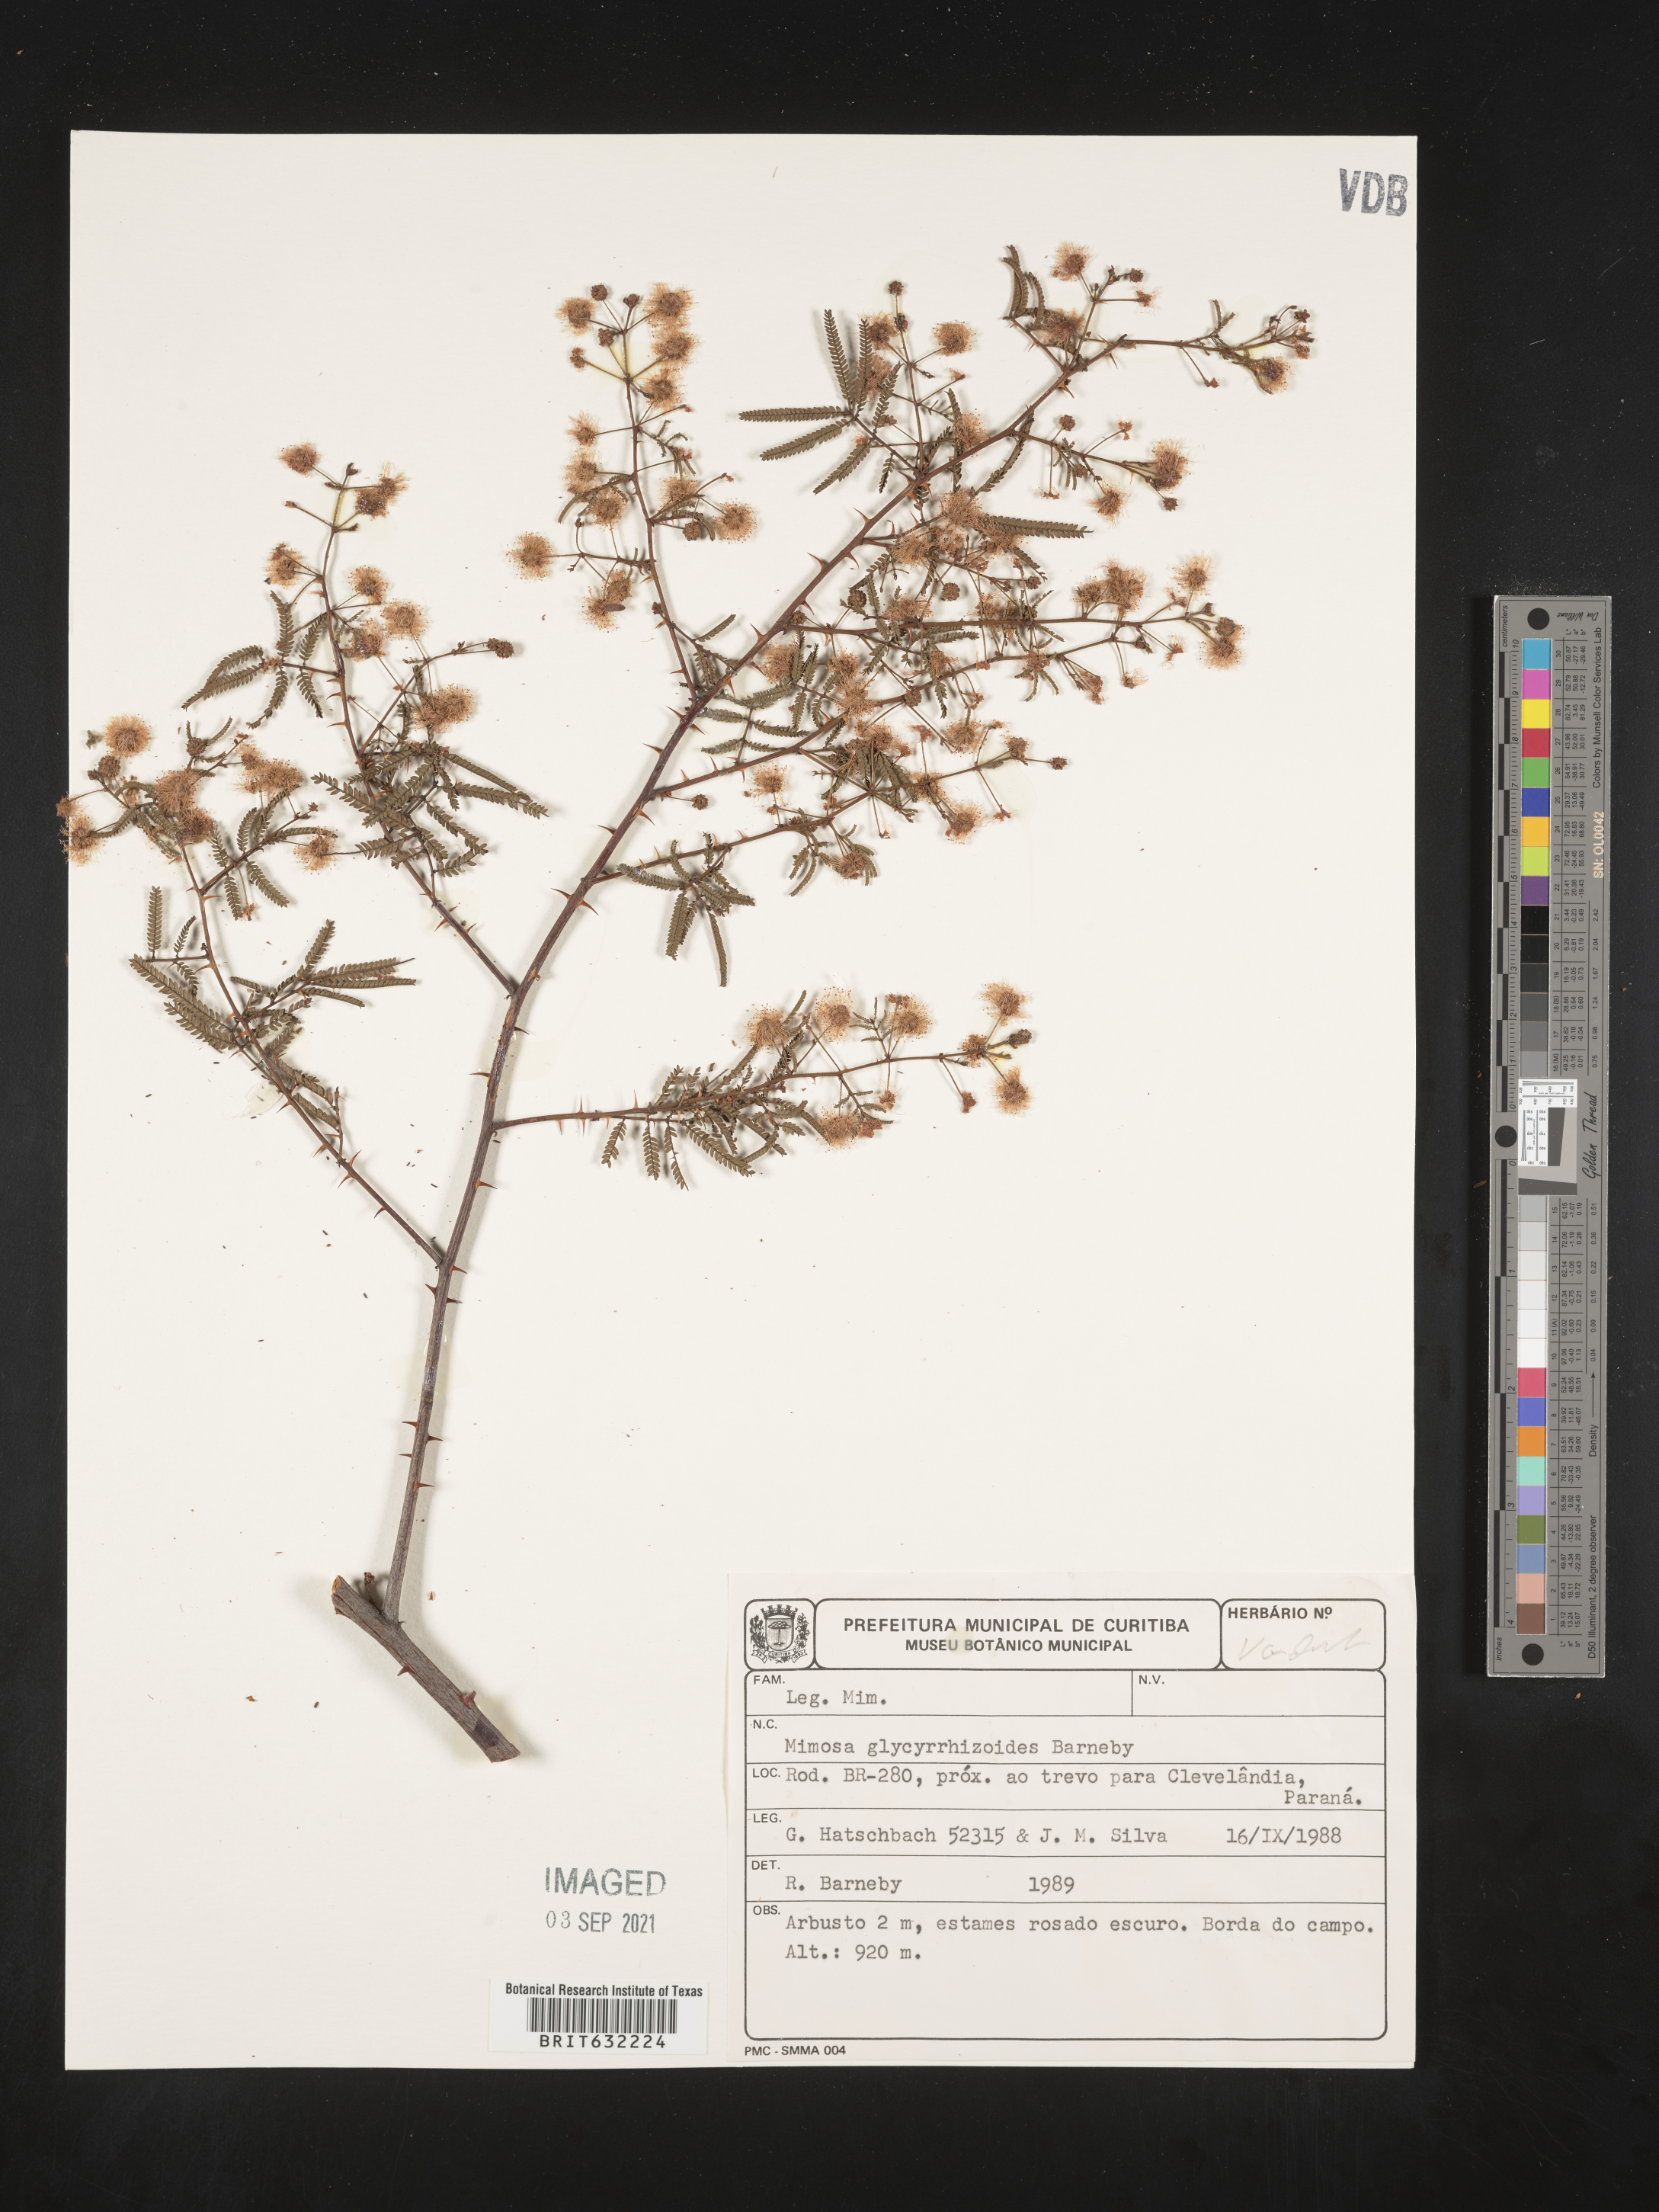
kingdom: Plantae
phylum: Tracheophyta
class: Magnoliopsida
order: Fabales
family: Fabaceae
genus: Mimosa
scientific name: Mimosa
